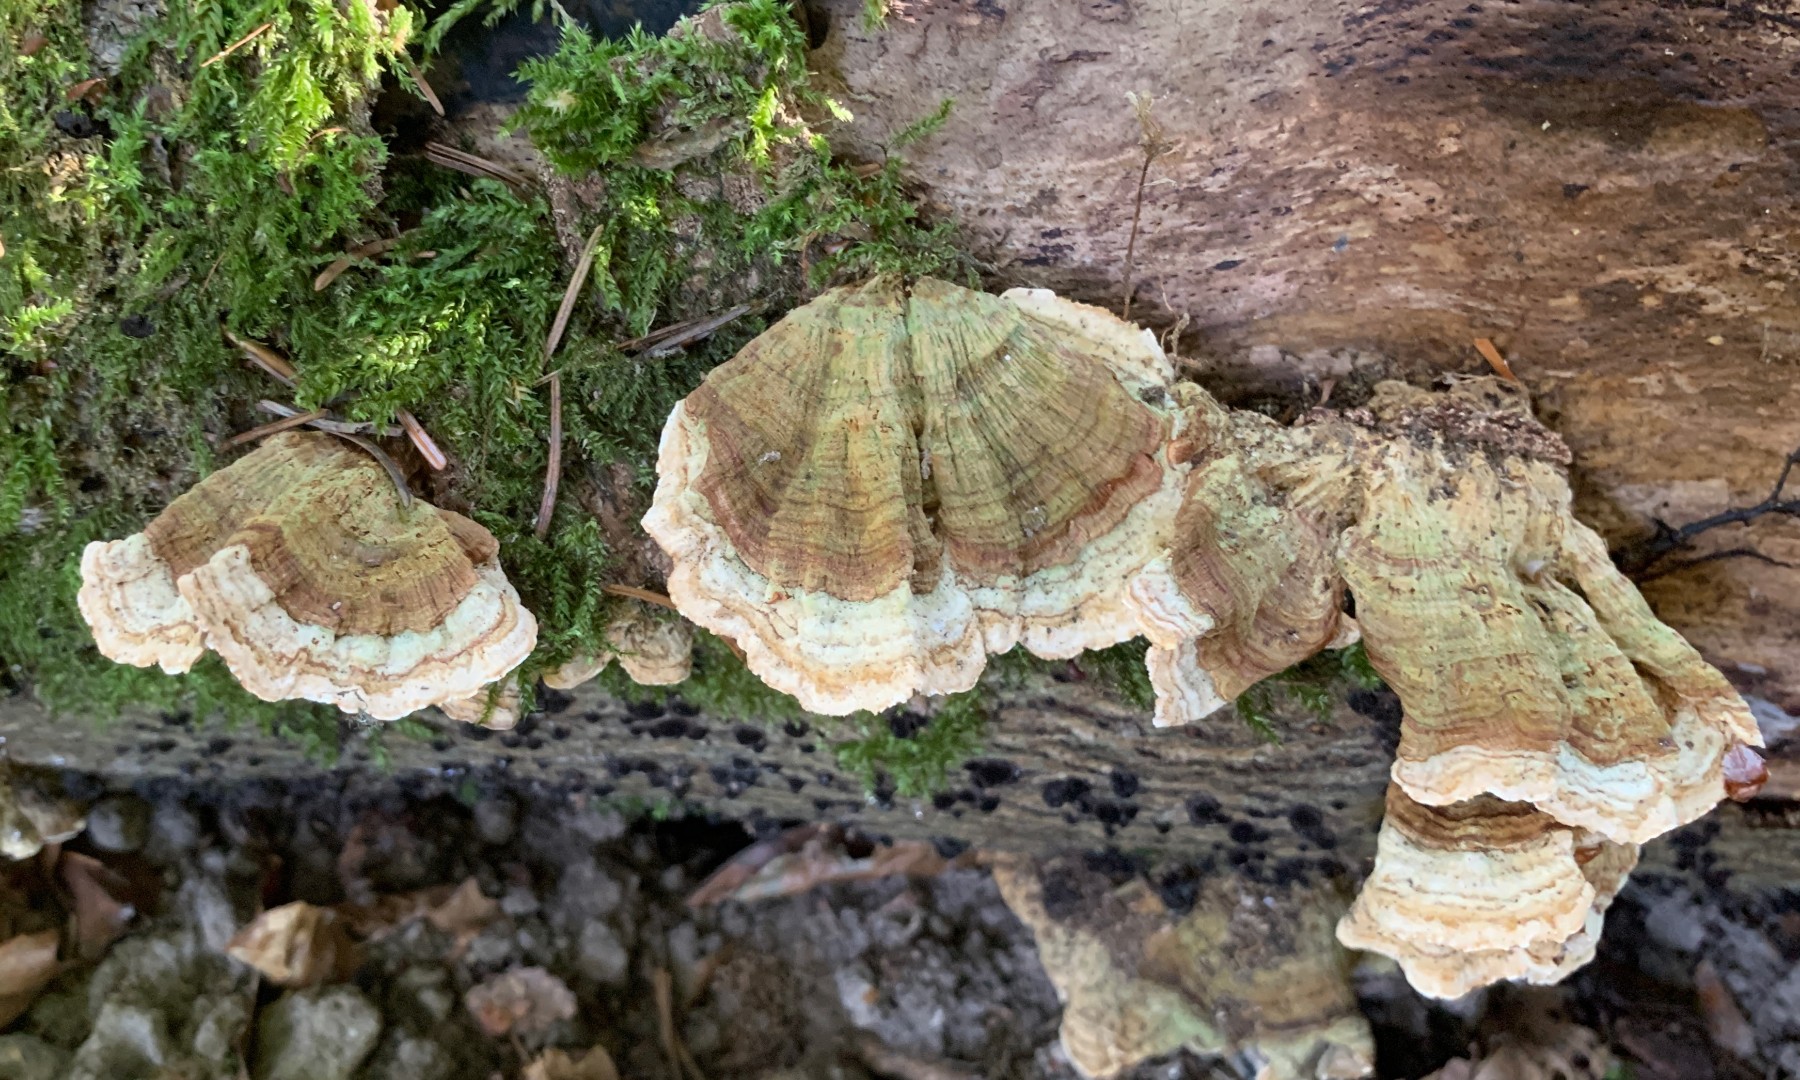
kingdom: Fungi
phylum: Basidiomycota
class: Agaricomycetes
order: Russulales
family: Stereaceae
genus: Stereum
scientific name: Stereum subtomentosum
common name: smuk lædersvamp
